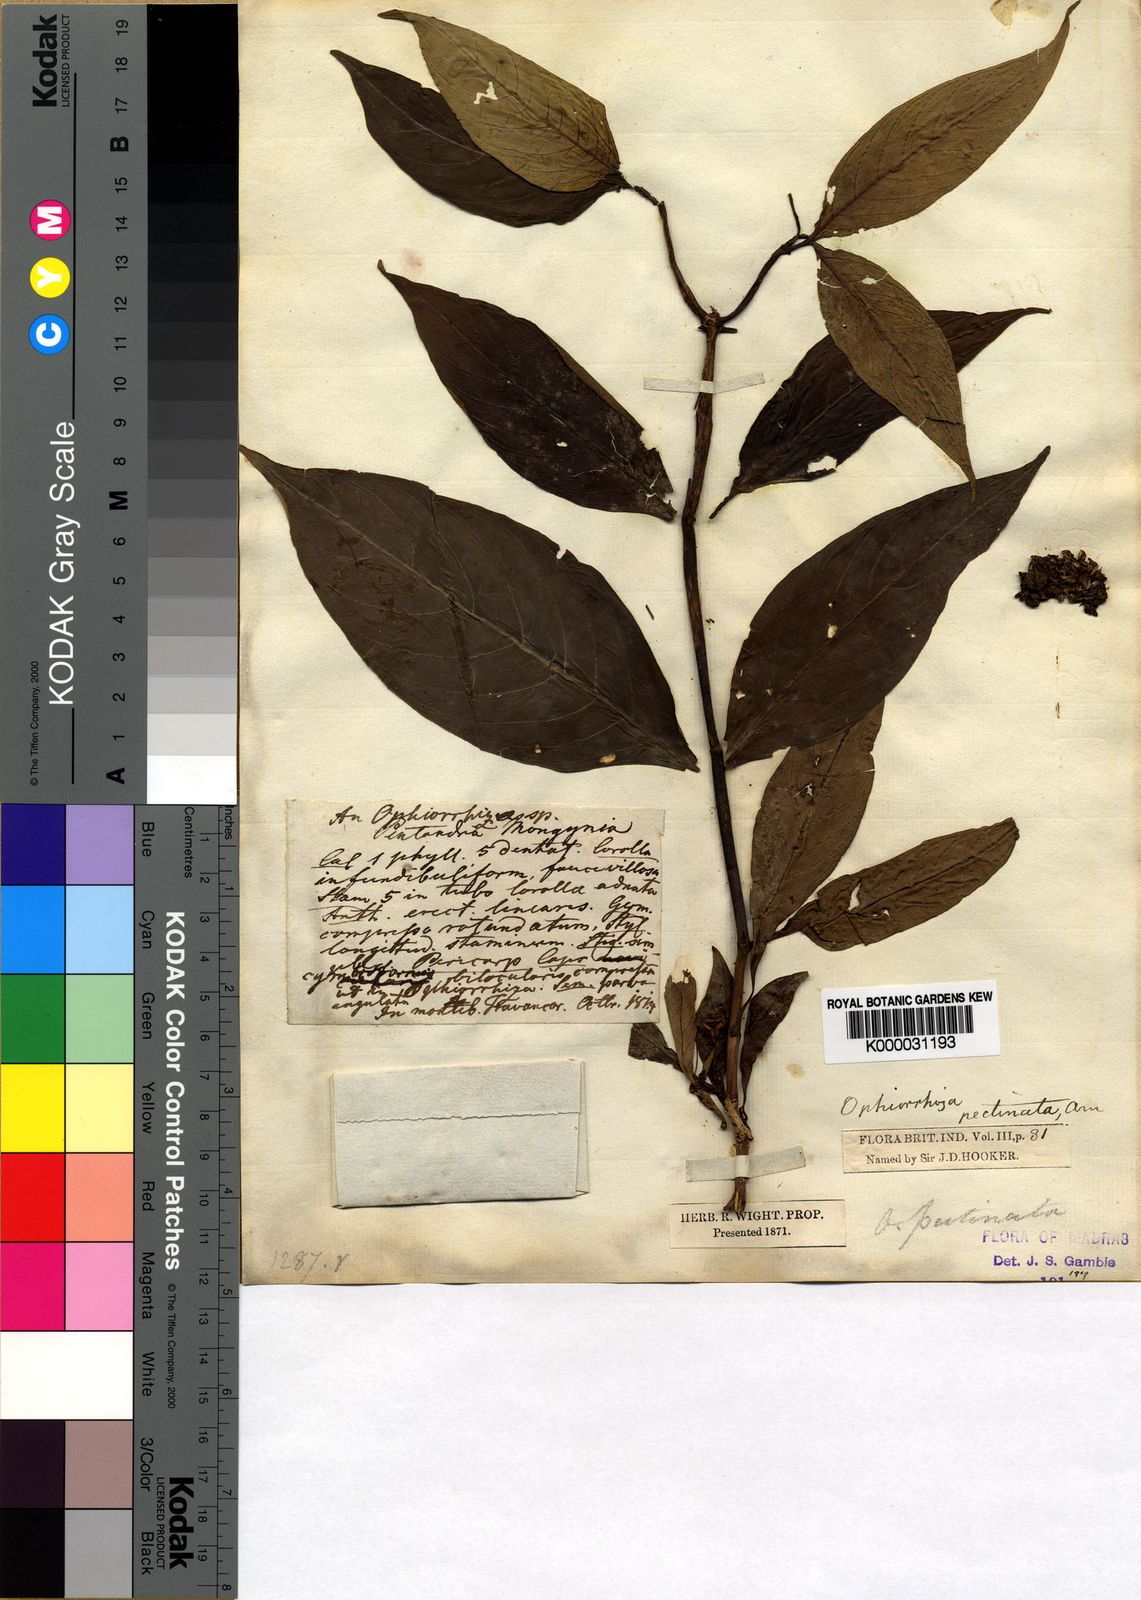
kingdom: Plantae
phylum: Tracheophyta
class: Magnoliopsida
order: Gentianales
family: Rubiaceae
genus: Ophiorrhiza
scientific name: Ophiorrhiza pectinata
